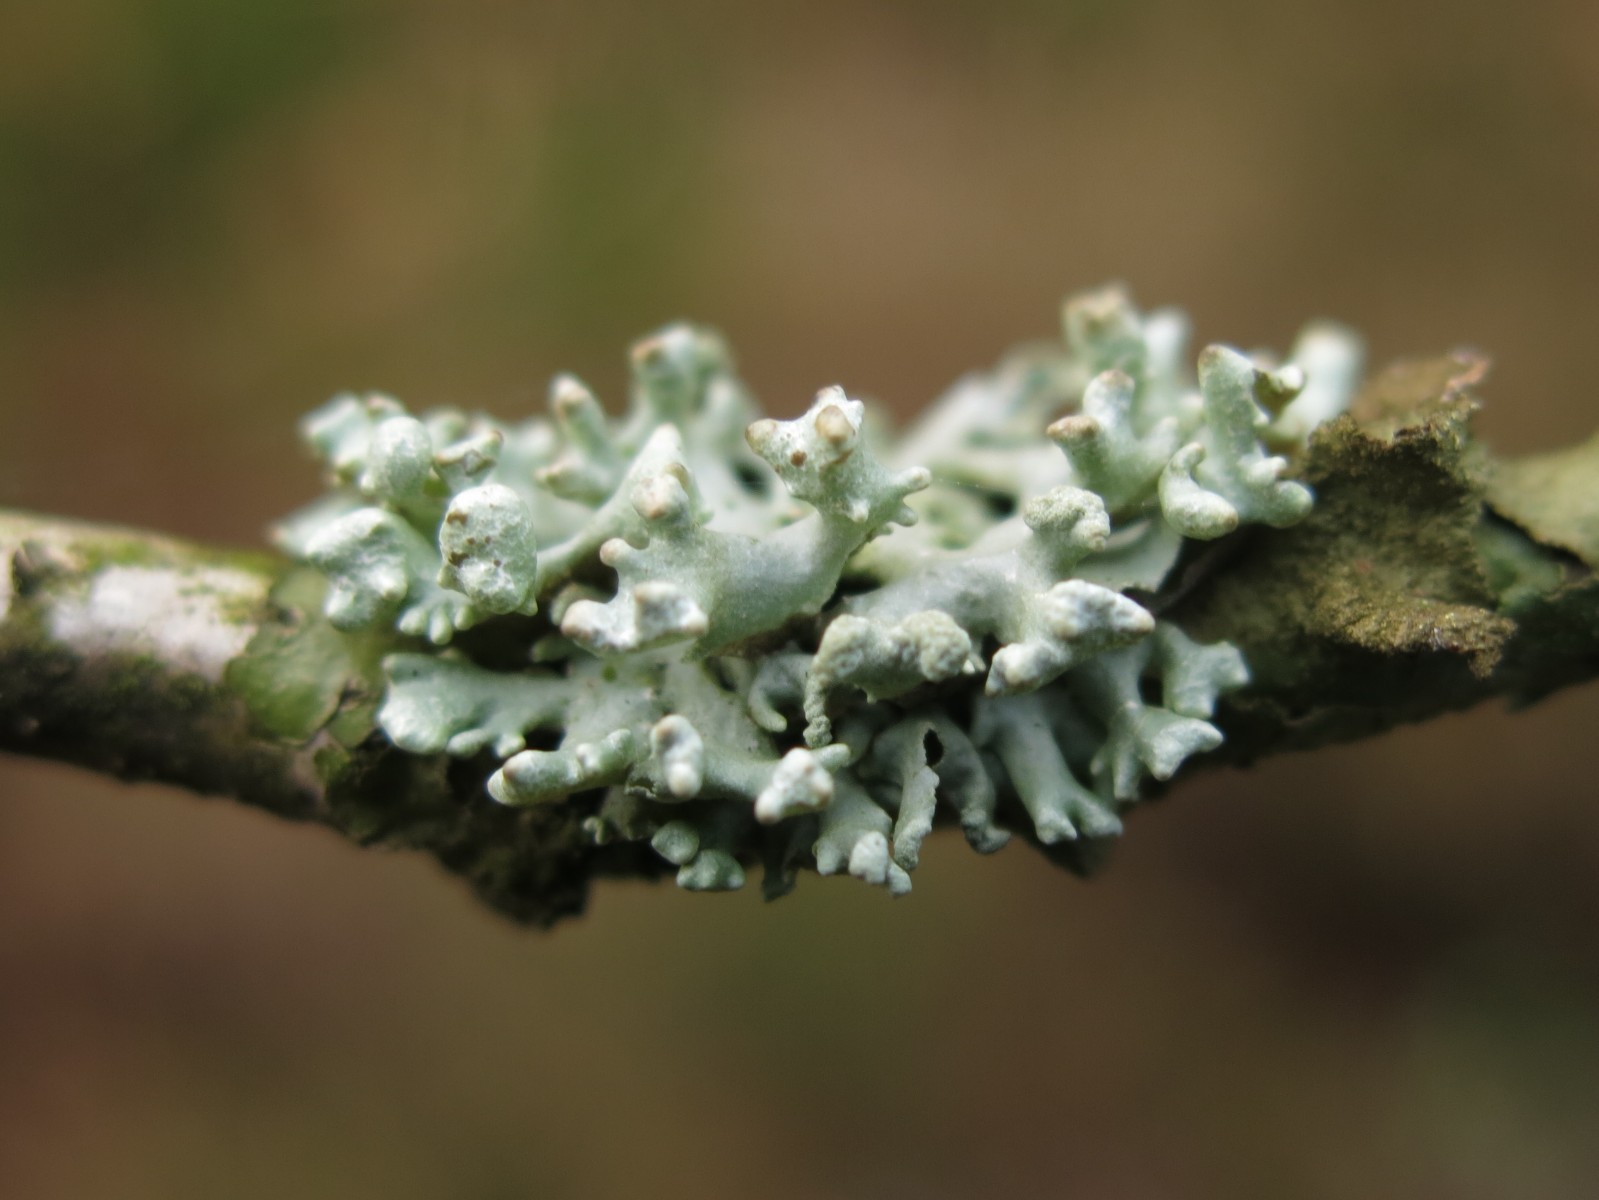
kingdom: Fungi
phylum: Ascomycota
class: Lecanoromycetes
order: Lecanorales
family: Parmeliaceae
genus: Hypogymnia
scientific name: Hypogymnia tubulosa
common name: finger-kvistlav
